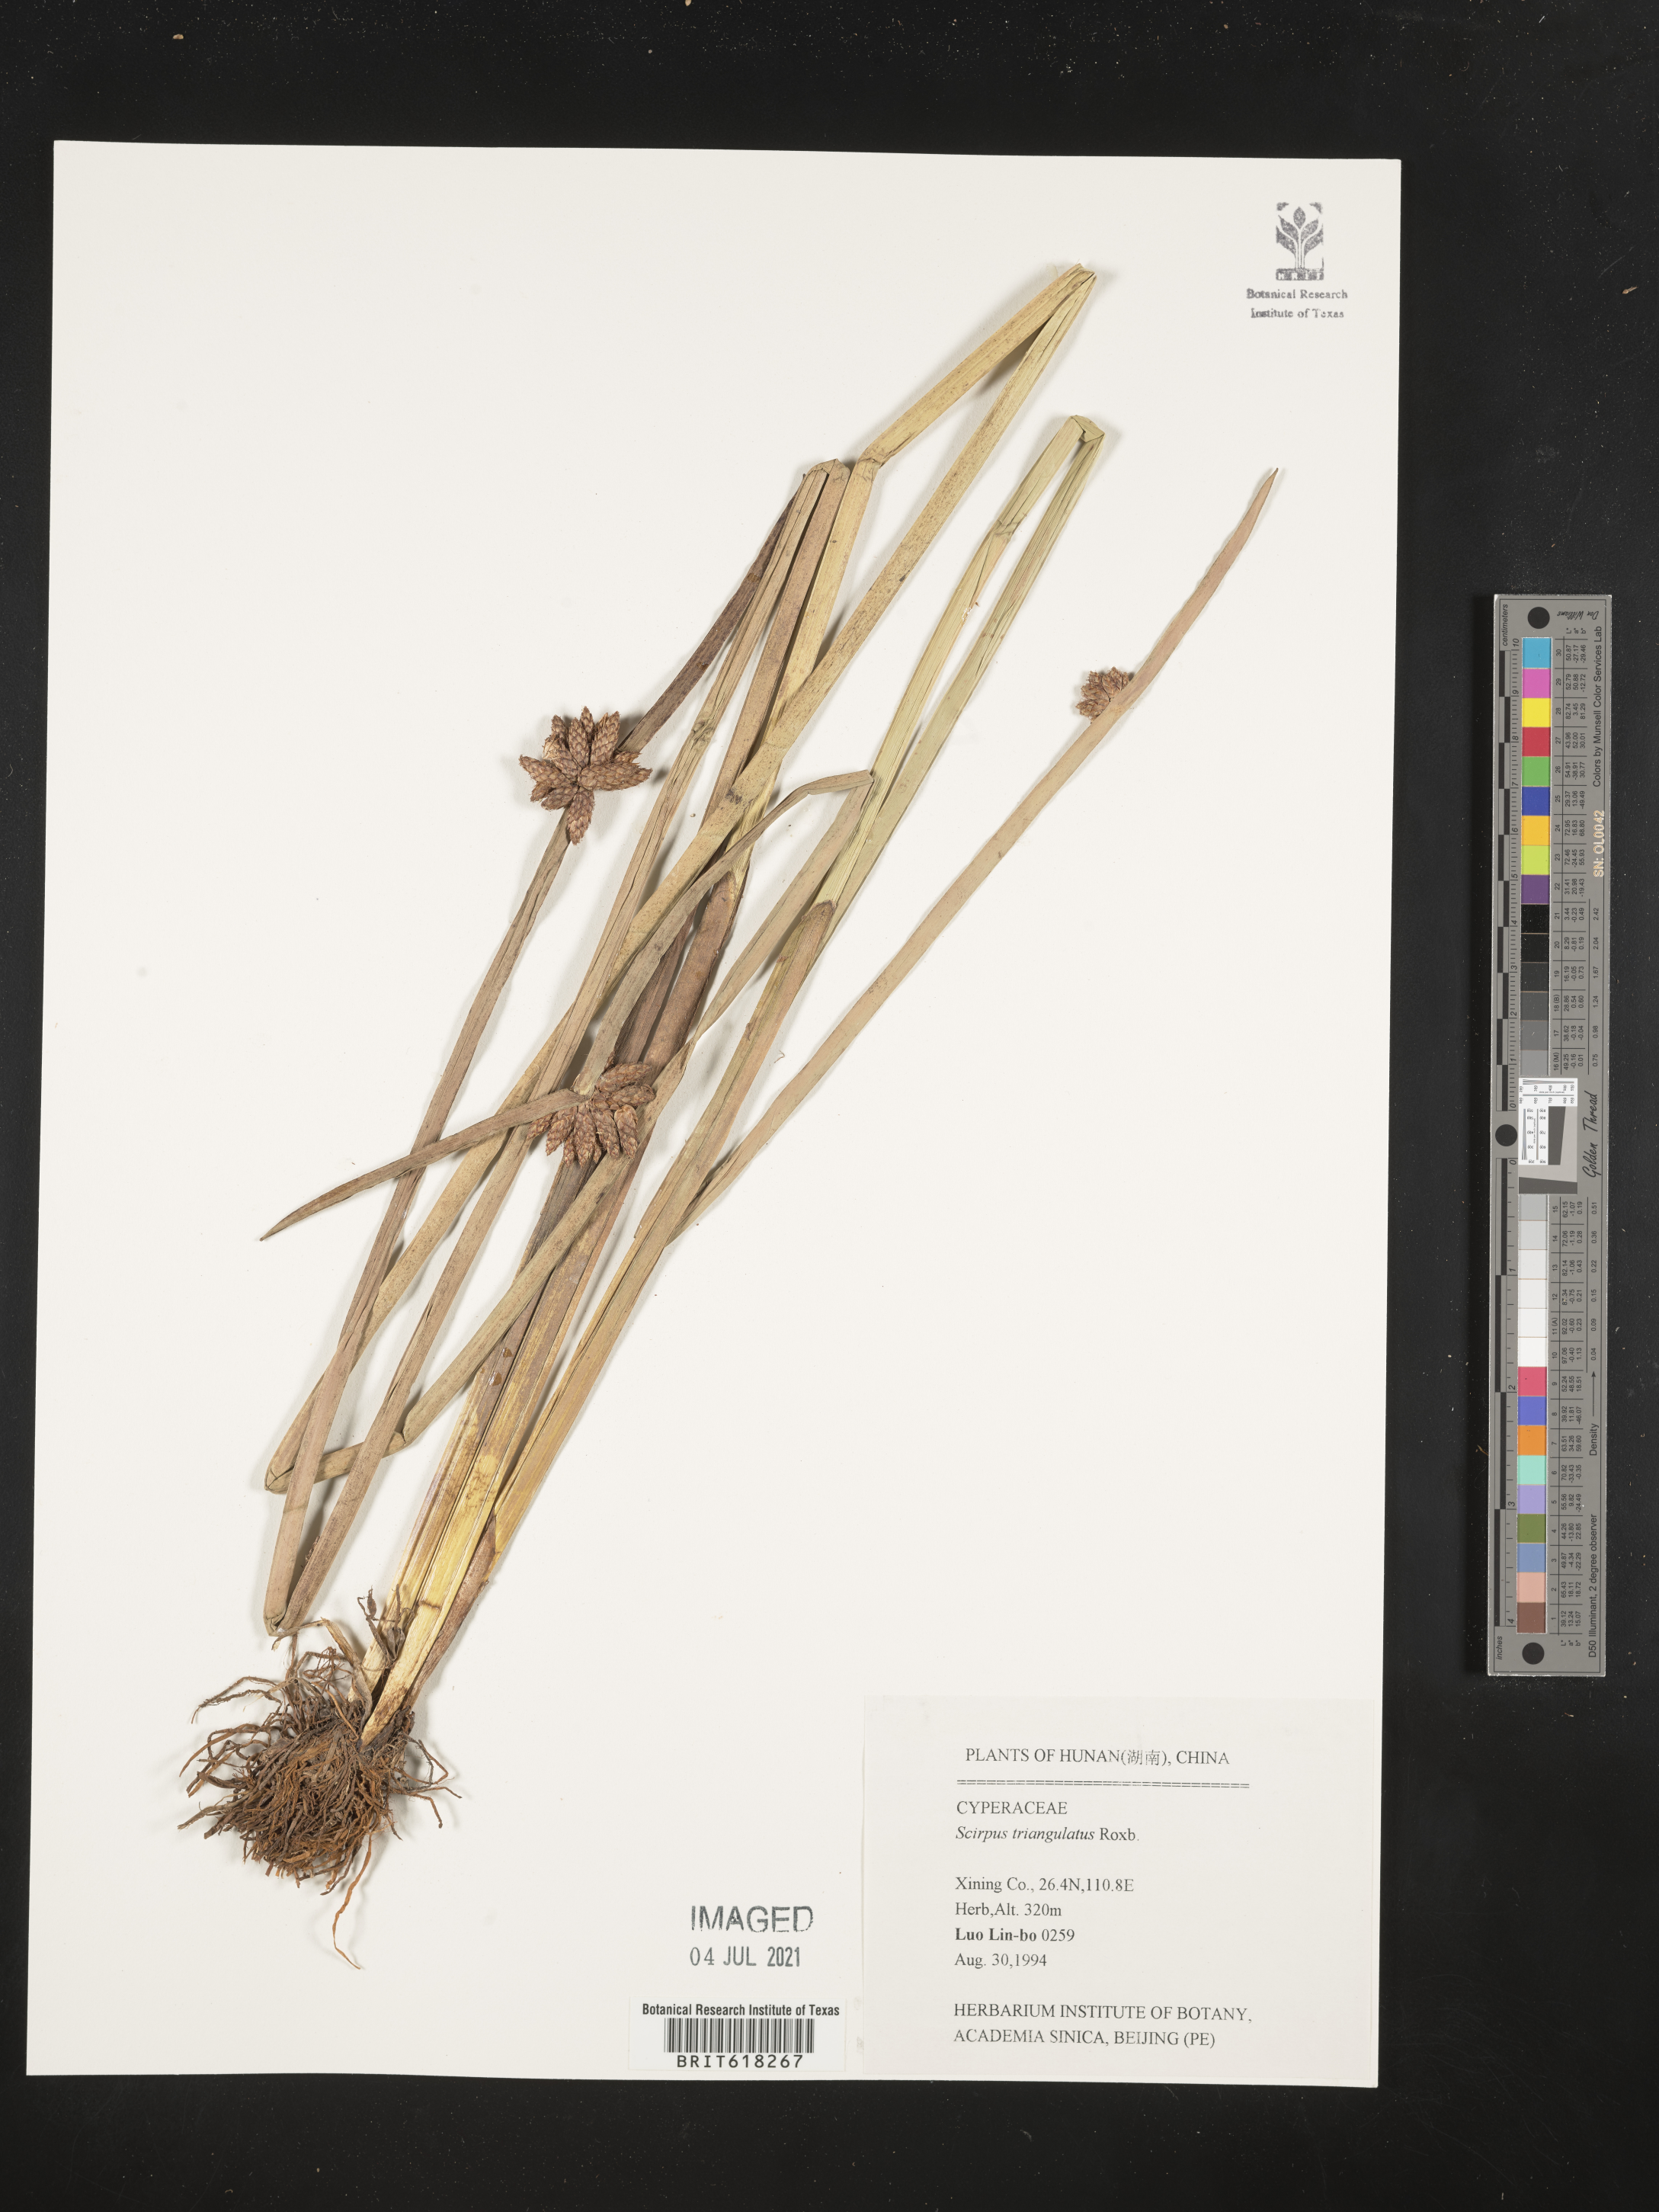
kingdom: Plantae
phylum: Tracheophyta
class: Liliopsida
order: Poales
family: Cyperaceae
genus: Schoenoplectus
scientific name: Schoenoplectus pungens
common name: Sharp club-rush
